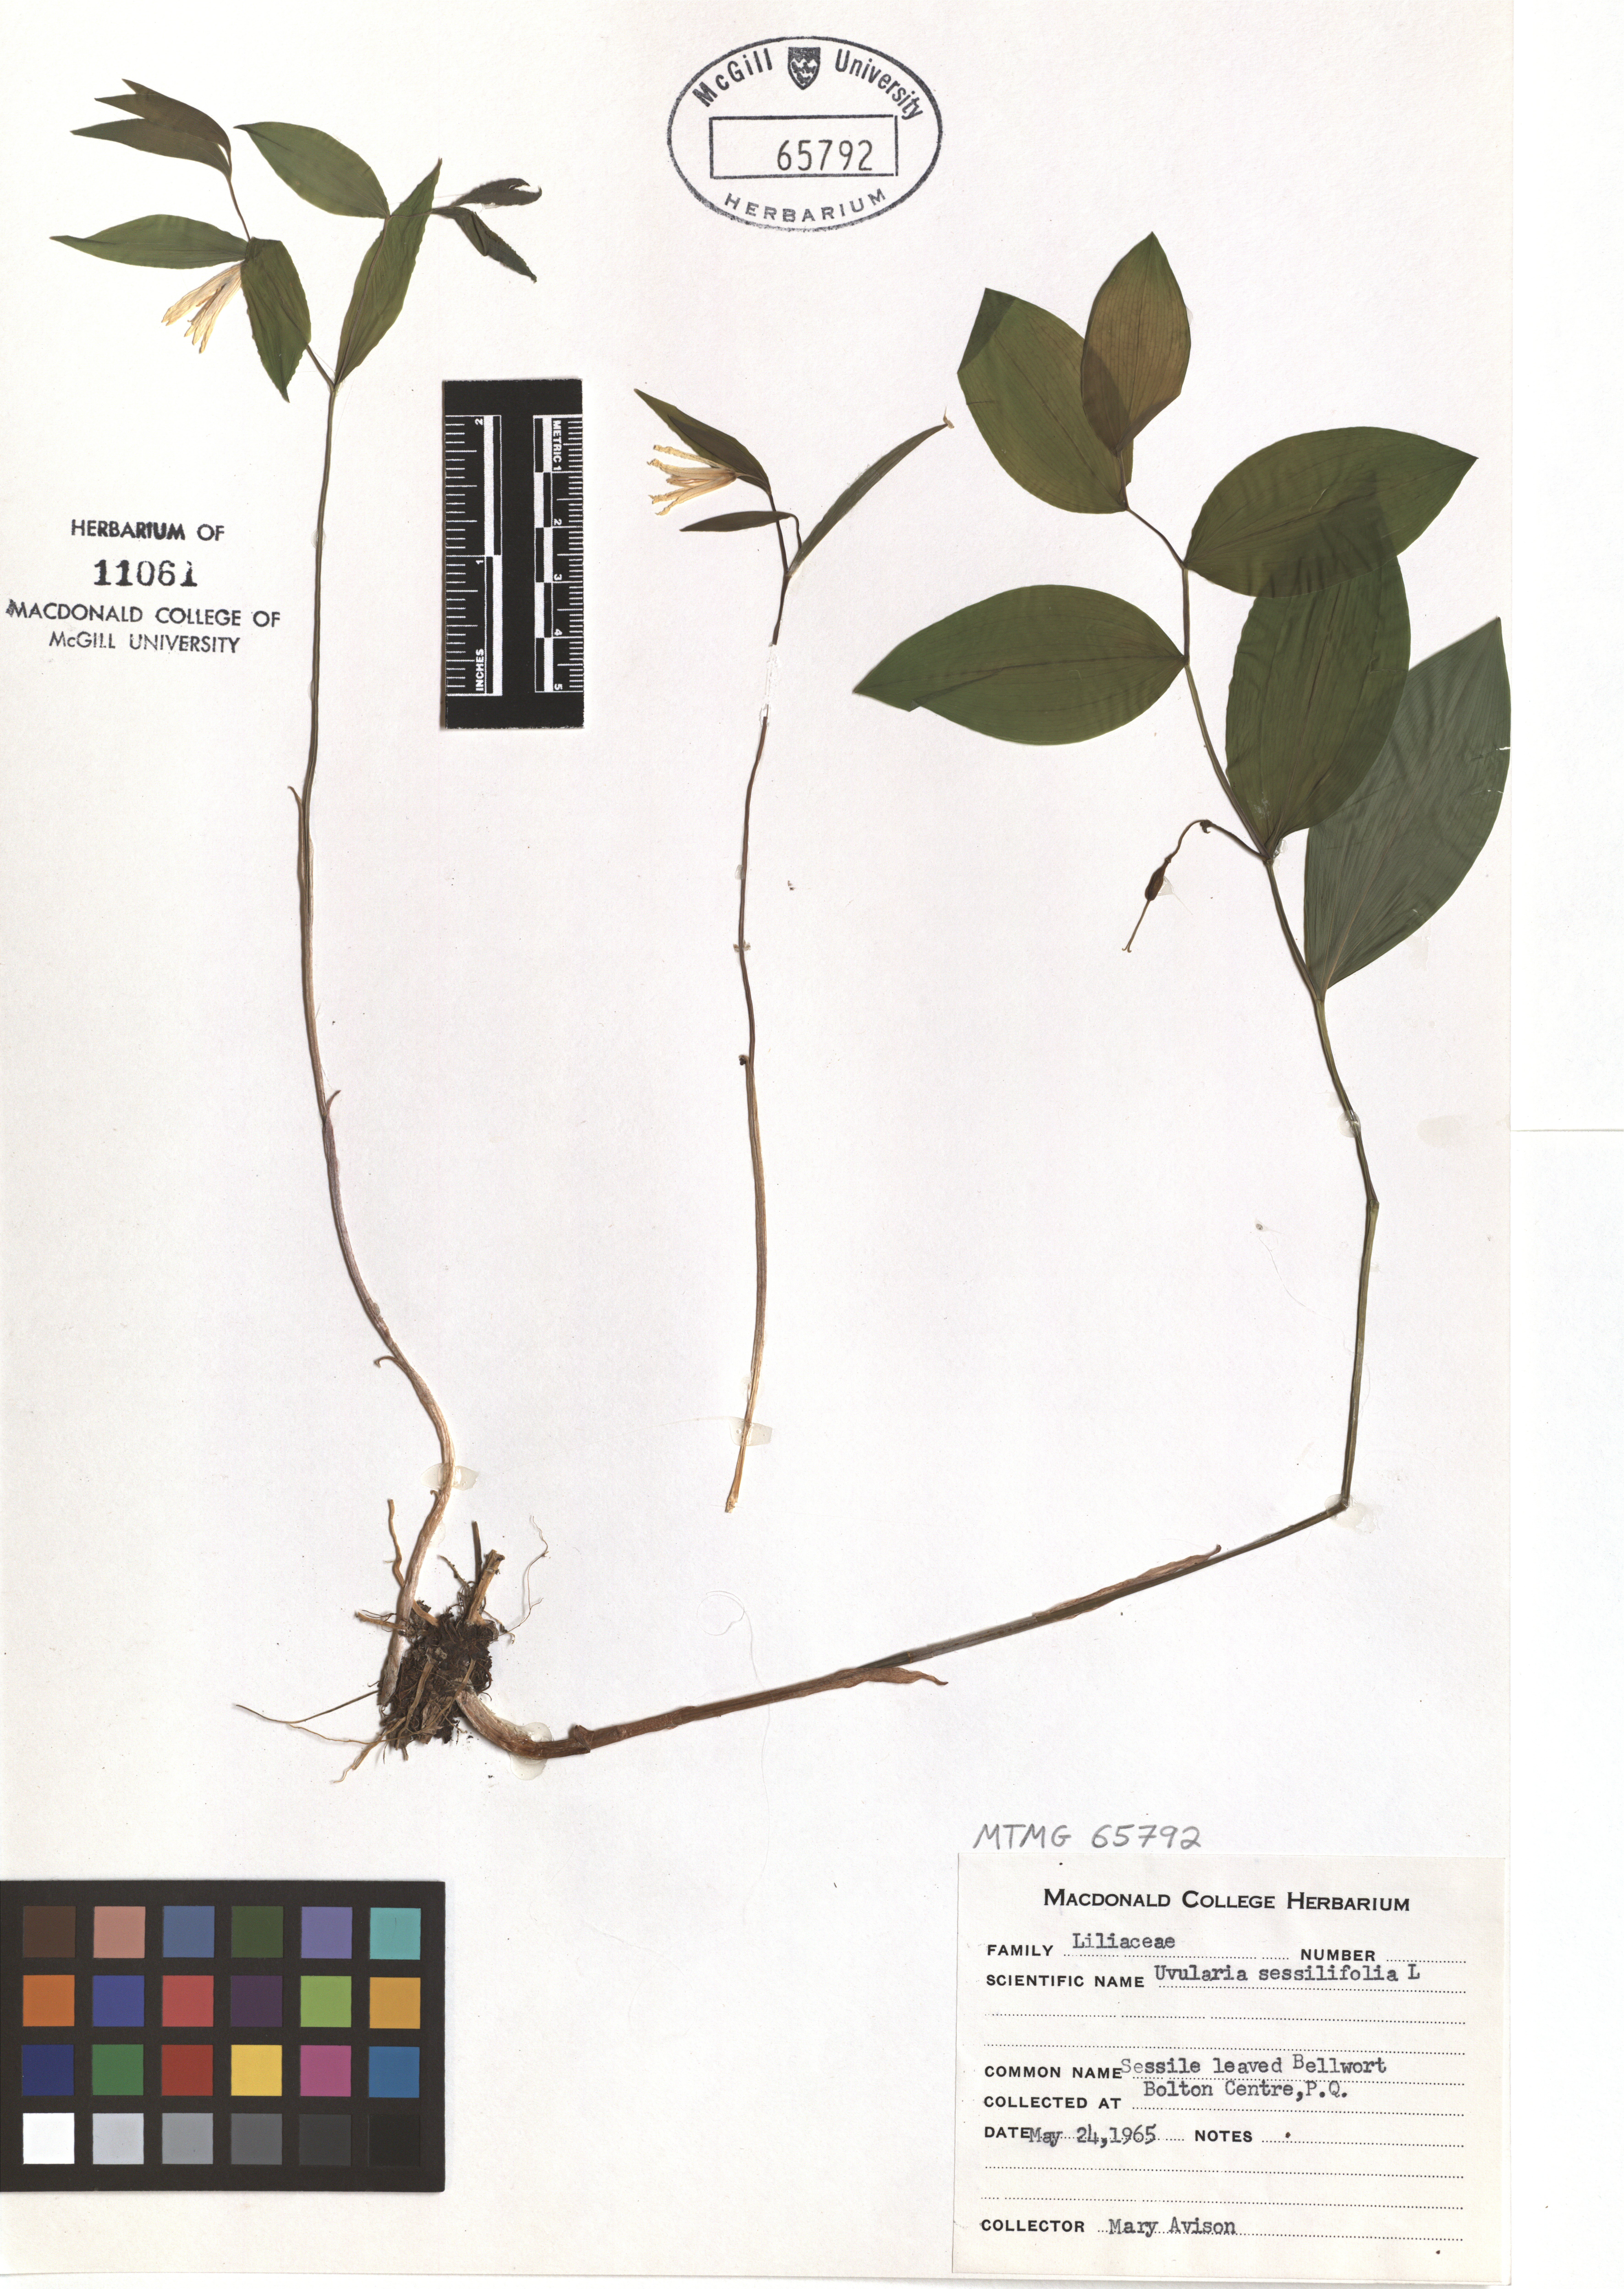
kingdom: Plantae
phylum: Tracheophyta
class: Liliopsida
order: Liliales
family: Colchicaceae
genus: Uvularia
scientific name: Uvularia sessilifolia
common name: Straw-lily
